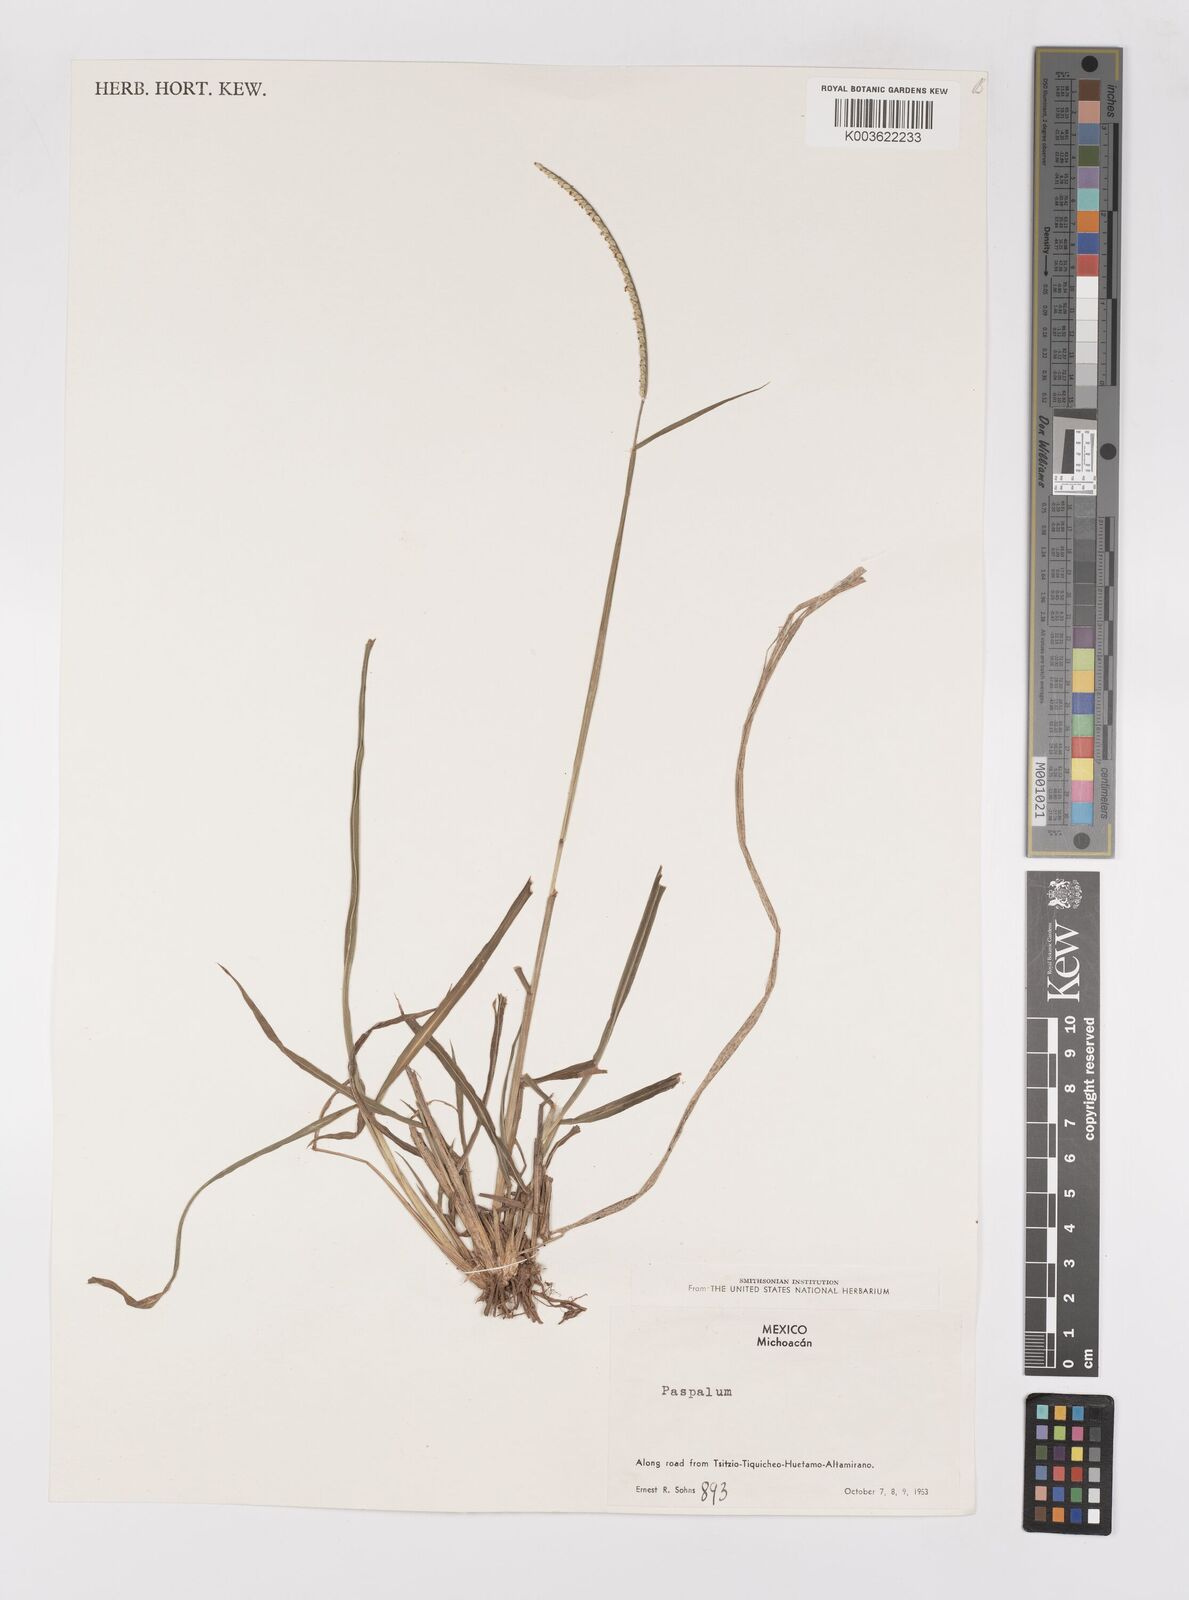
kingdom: Plantae
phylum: Tracheophyta
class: Liliopsida
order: Poales
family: Poaceae
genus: Paspalum
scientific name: Paspalum
